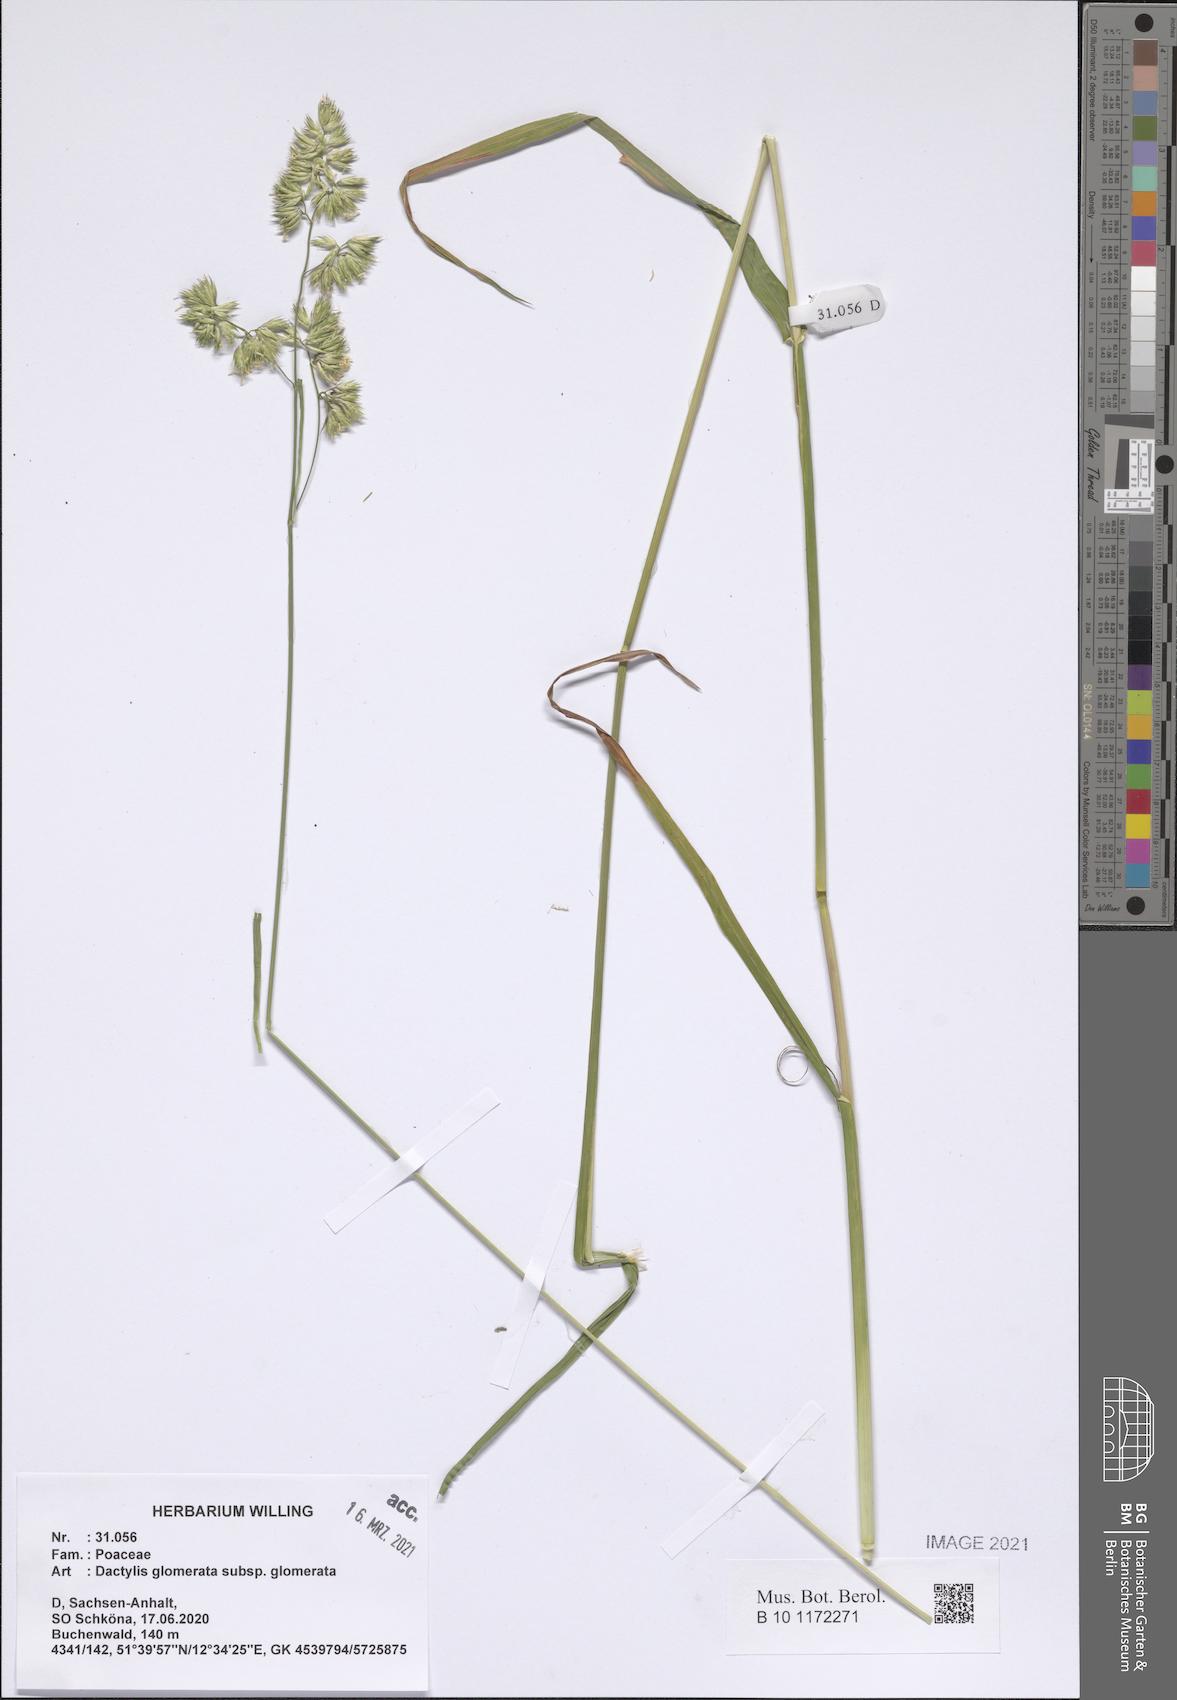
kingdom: Plantae
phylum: Tracheophyta
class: Liliopsida
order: Poales
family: Poaceae
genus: Dactylis
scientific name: Dactylis glomerata
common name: Orchardgrass
